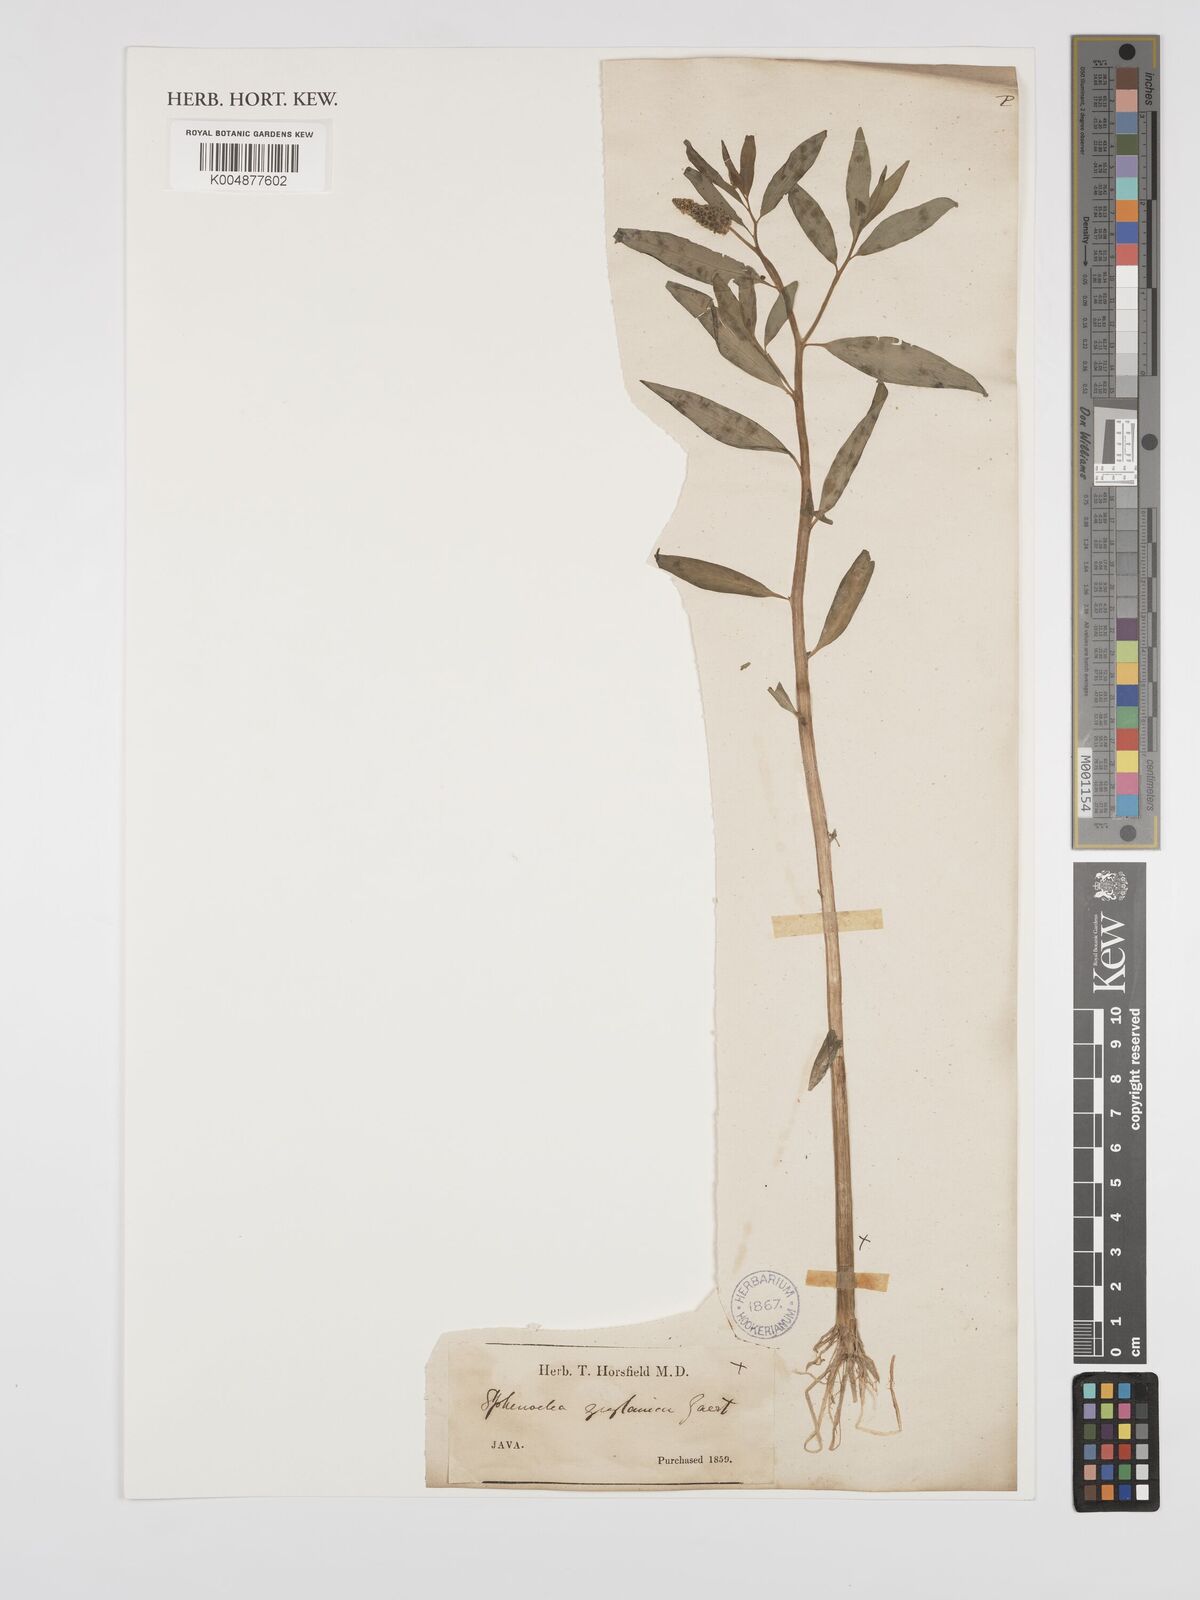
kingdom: Plantae
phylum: Tracheophyta
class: Magnoliopsida
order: Solanales
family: Sphenocleaceae
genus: Sphenoclea
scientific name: Sphenoclea zeylanica
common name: Chickenspike
